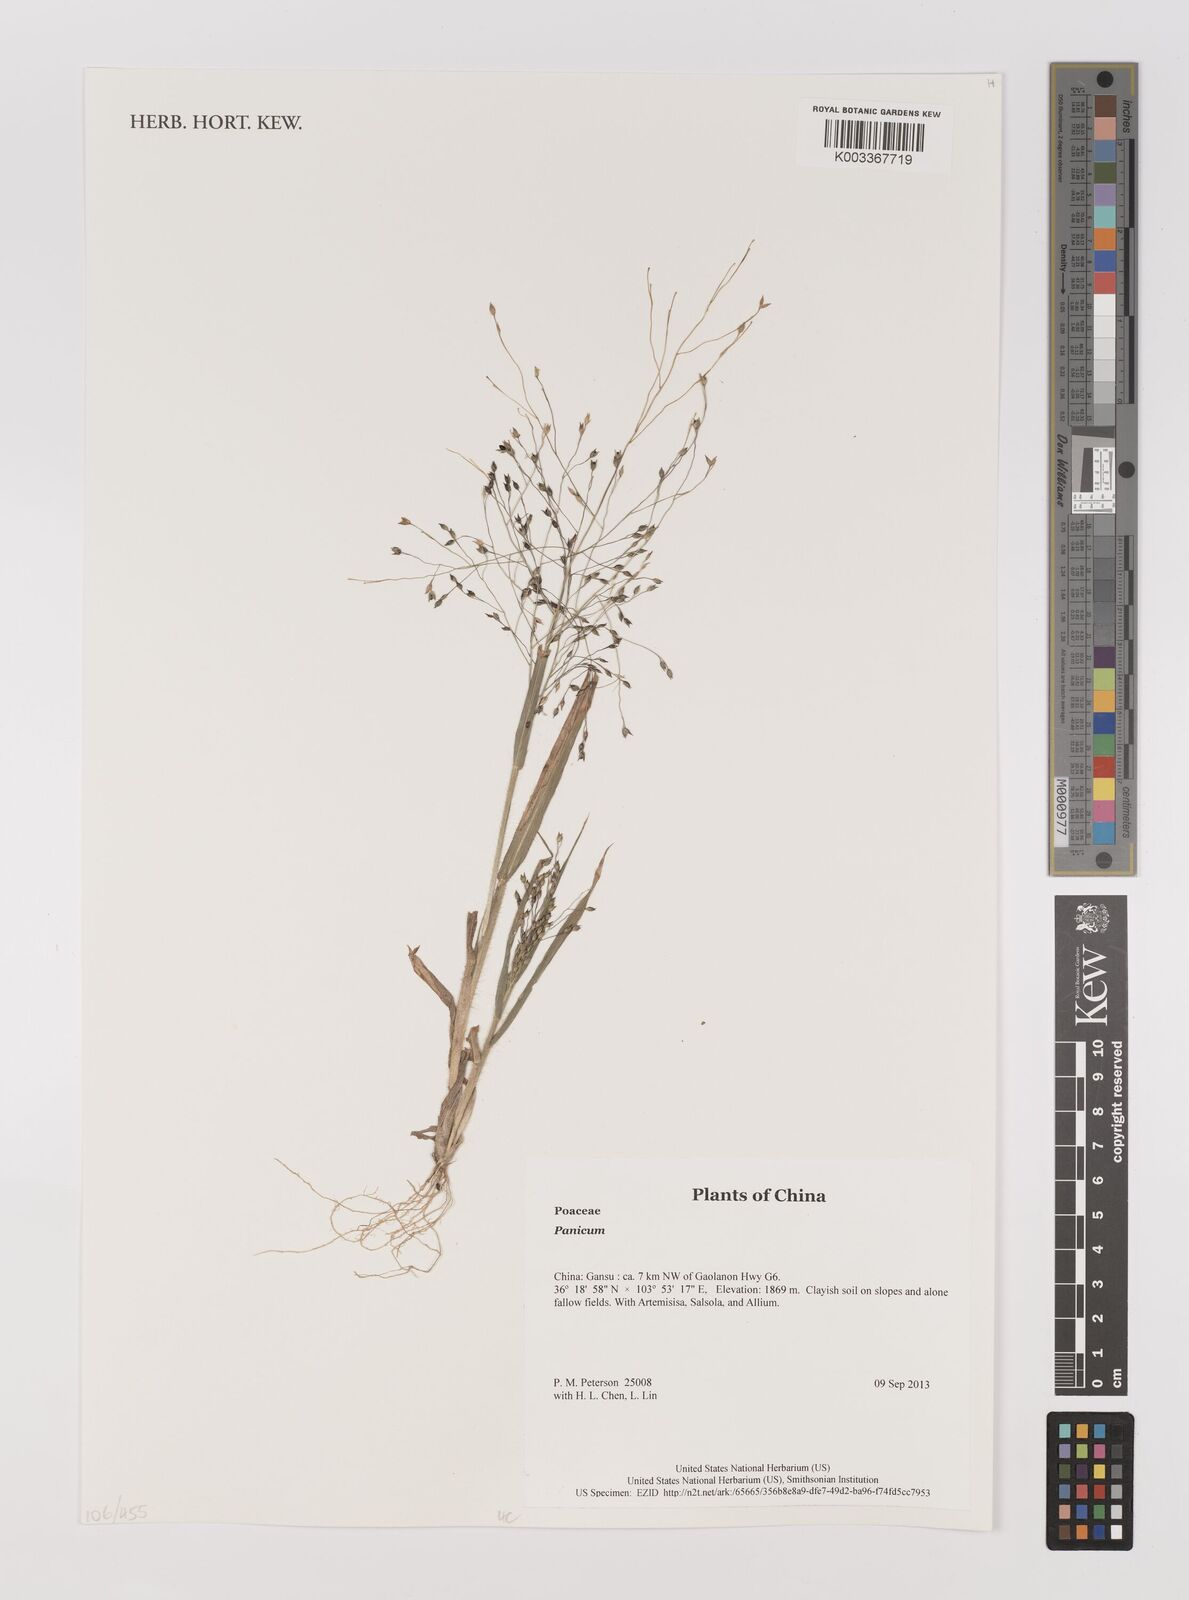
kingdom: Plantae
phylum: Tracheophyta
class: Liliopsida
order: Poales
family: Poaceae
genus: Panicum
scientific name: Panicum
